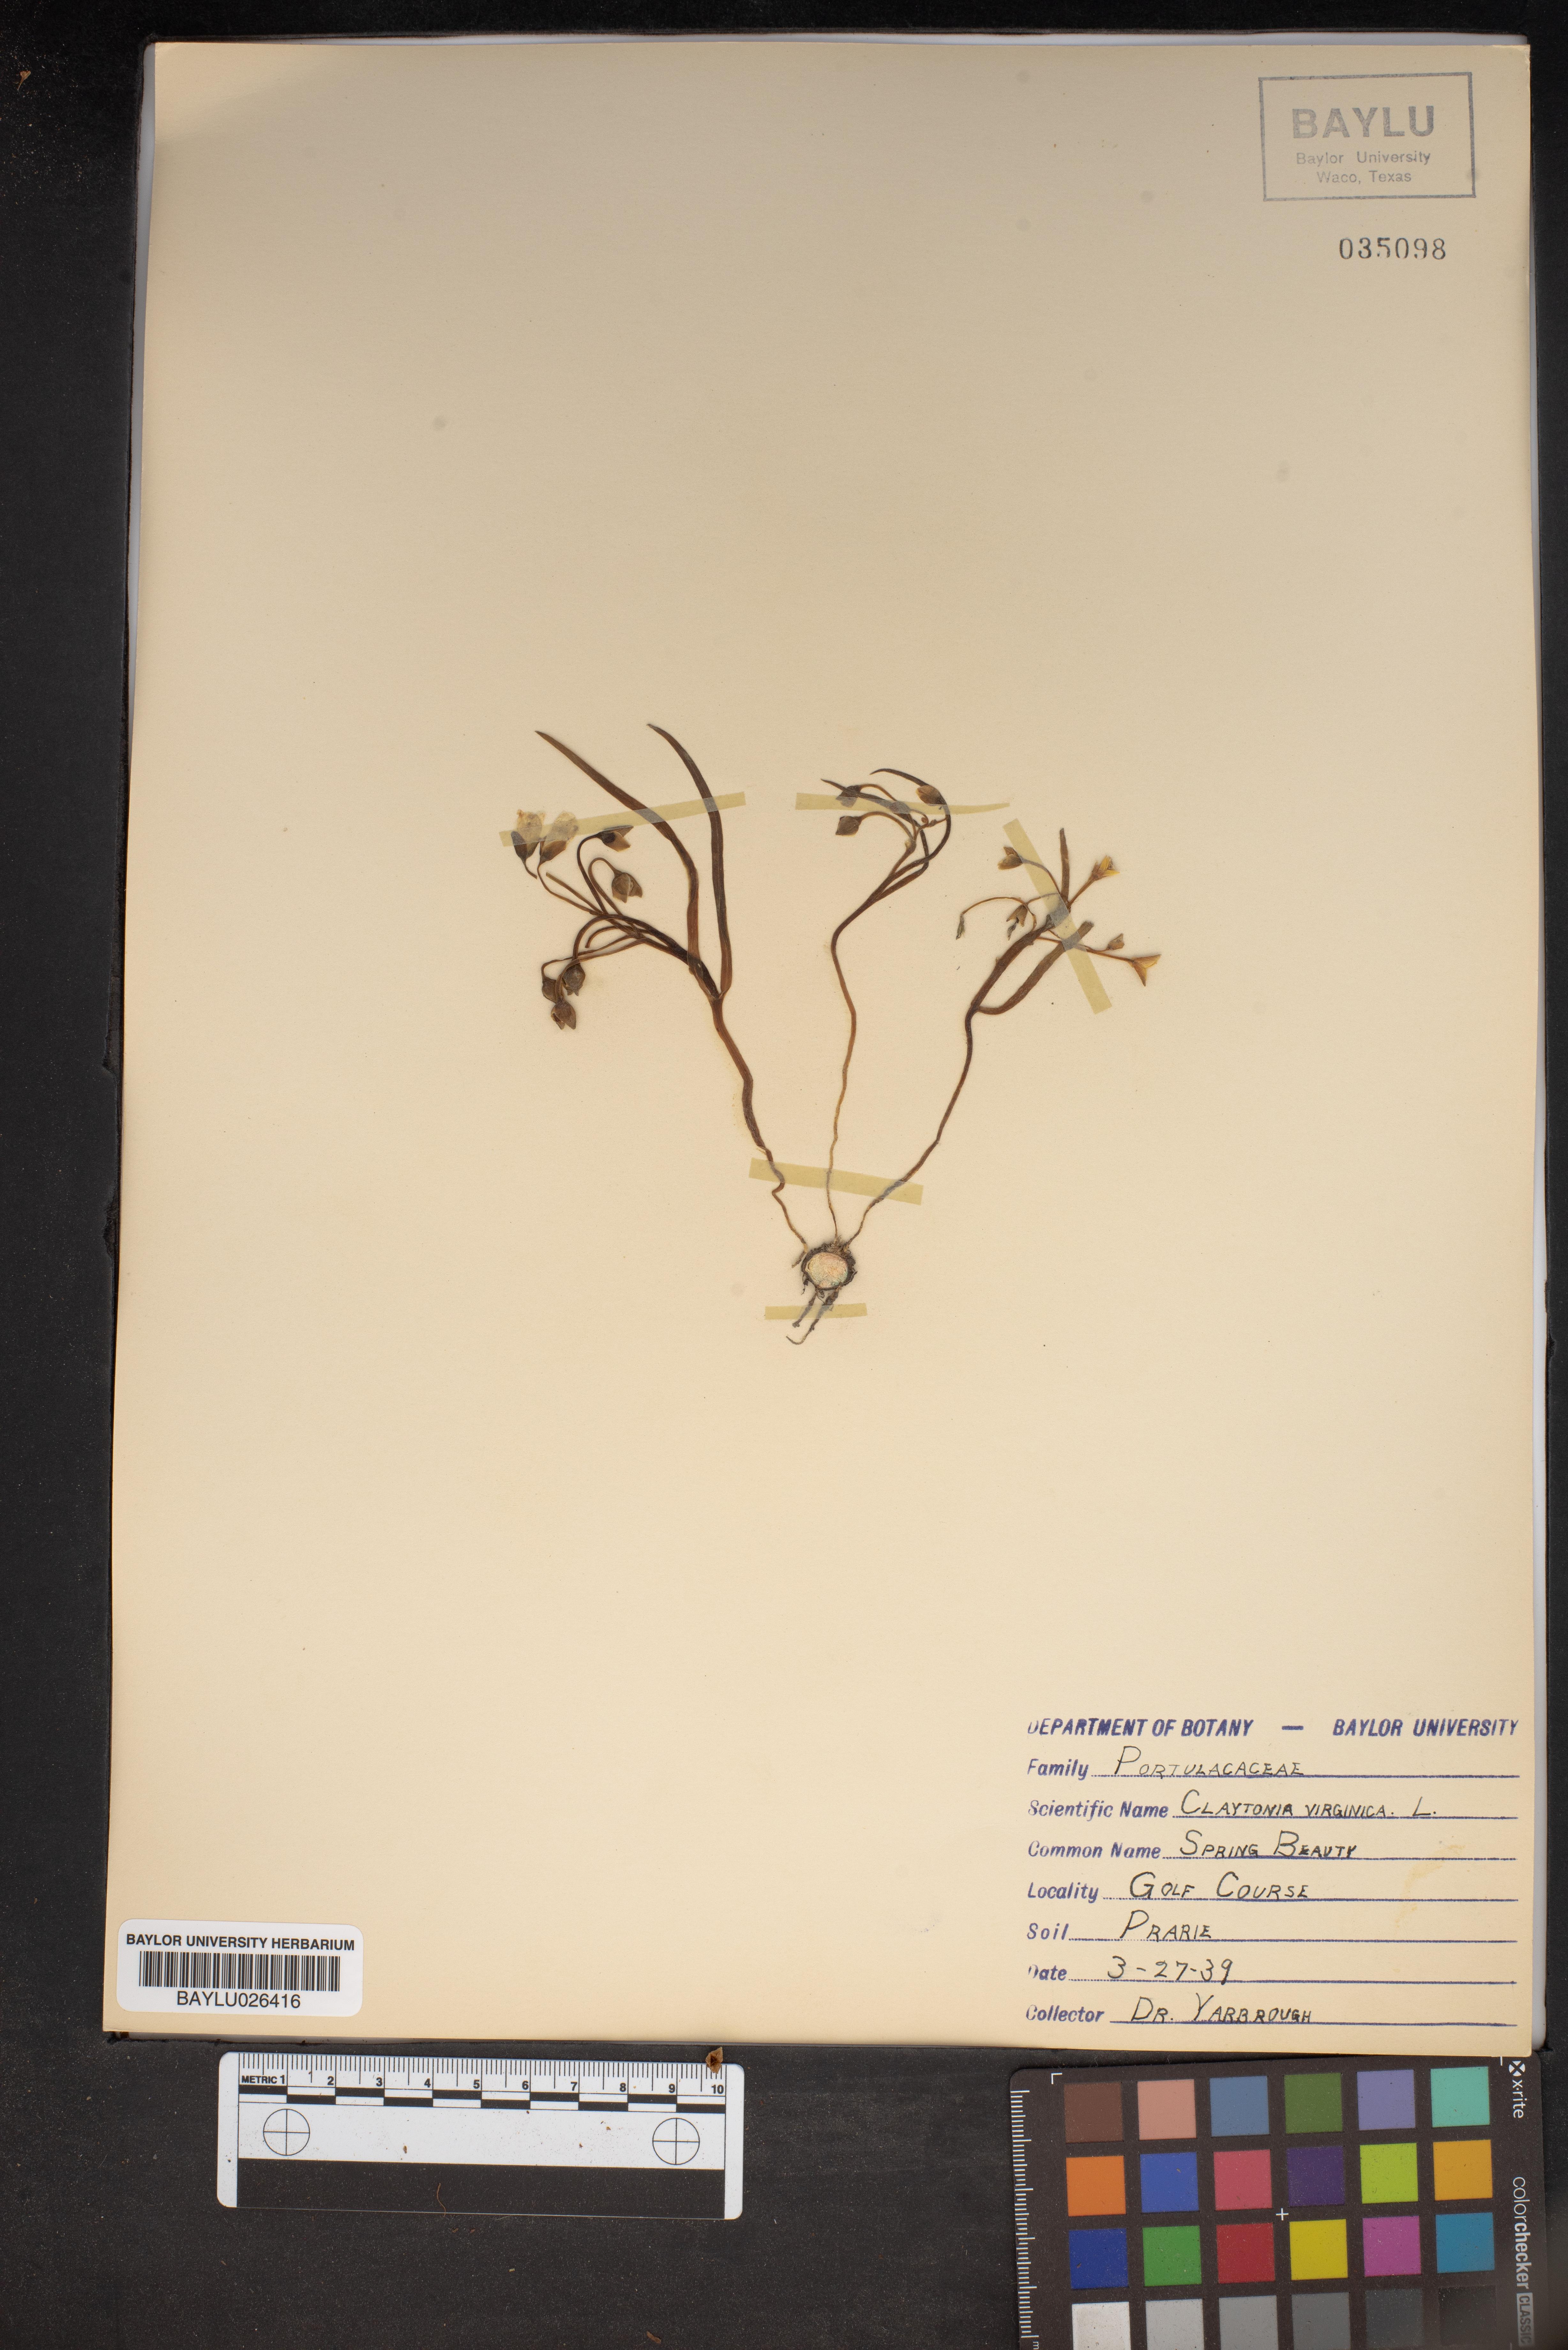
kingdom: Plantae
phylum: Tracheophyta
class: Magnoliopsida
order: Caryophyllales
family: Montiaceae
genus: Claytonia
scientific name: Claytonia virginica
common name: Virginia springbeauty
